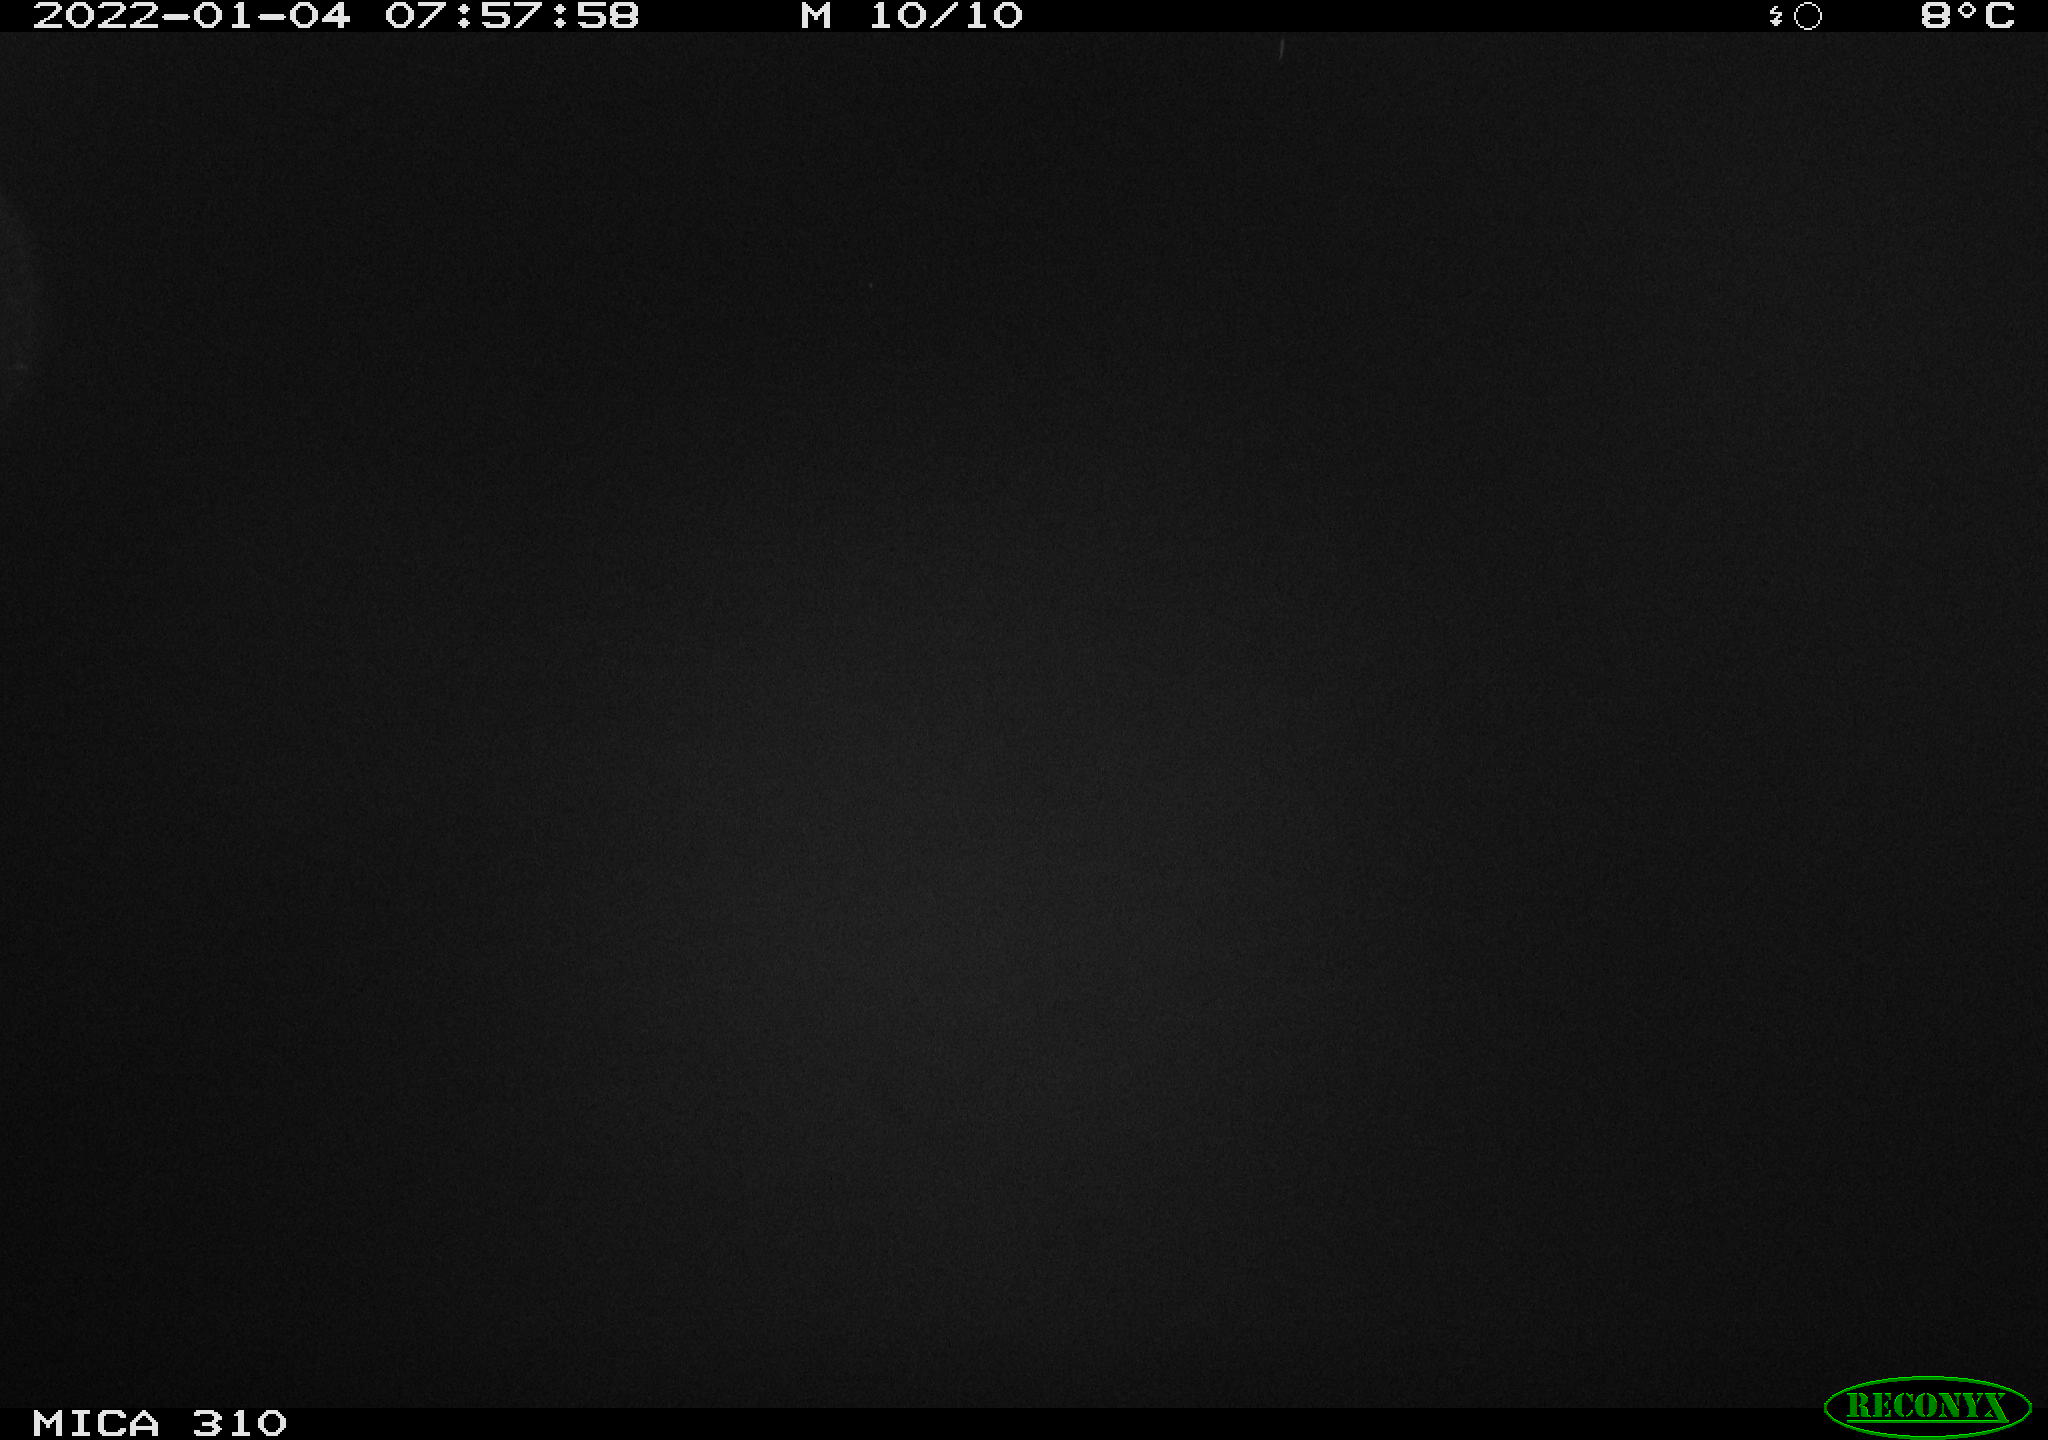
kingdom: Animalia
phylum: Chordata
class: Aves
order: Gruiformes
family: Rallidae
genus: Fulica
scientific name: Fulica atra
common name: Eurasian coot
